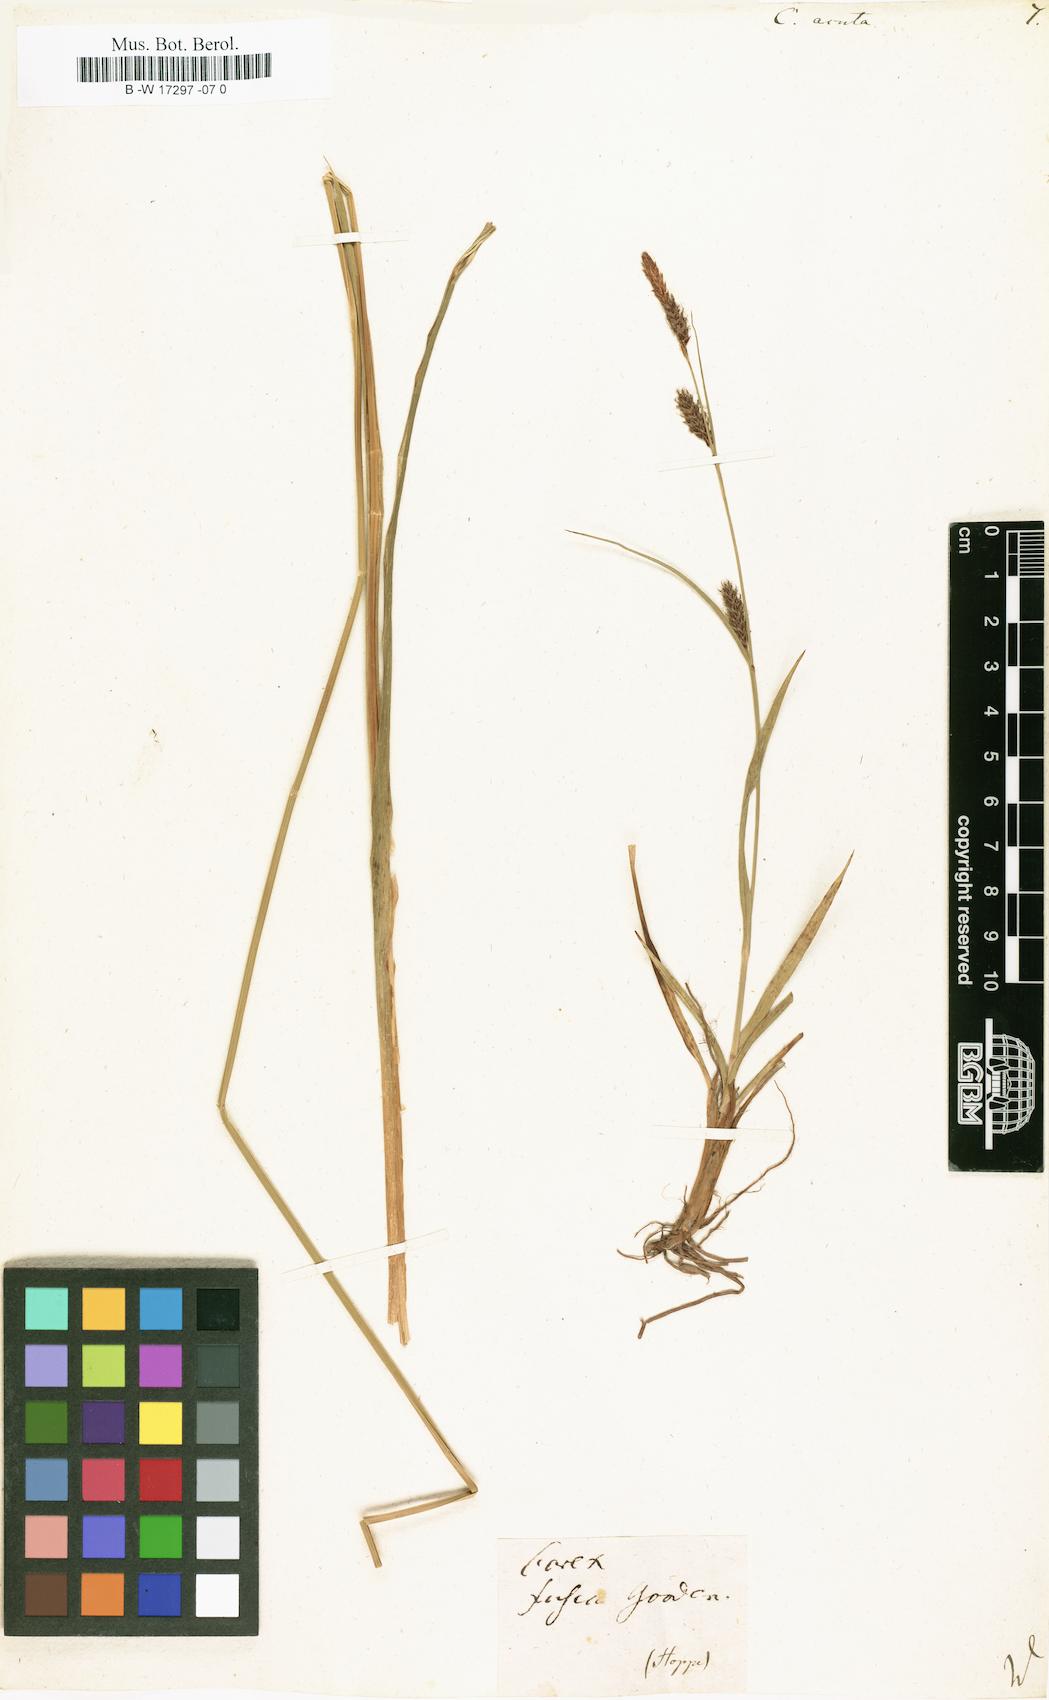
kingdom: Plantae
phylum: Tracheophyta
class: Liliopsida
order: Poales
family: Cyperaceae
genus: Carex
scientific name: Carex acuta
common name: Slender tufted-sedge
